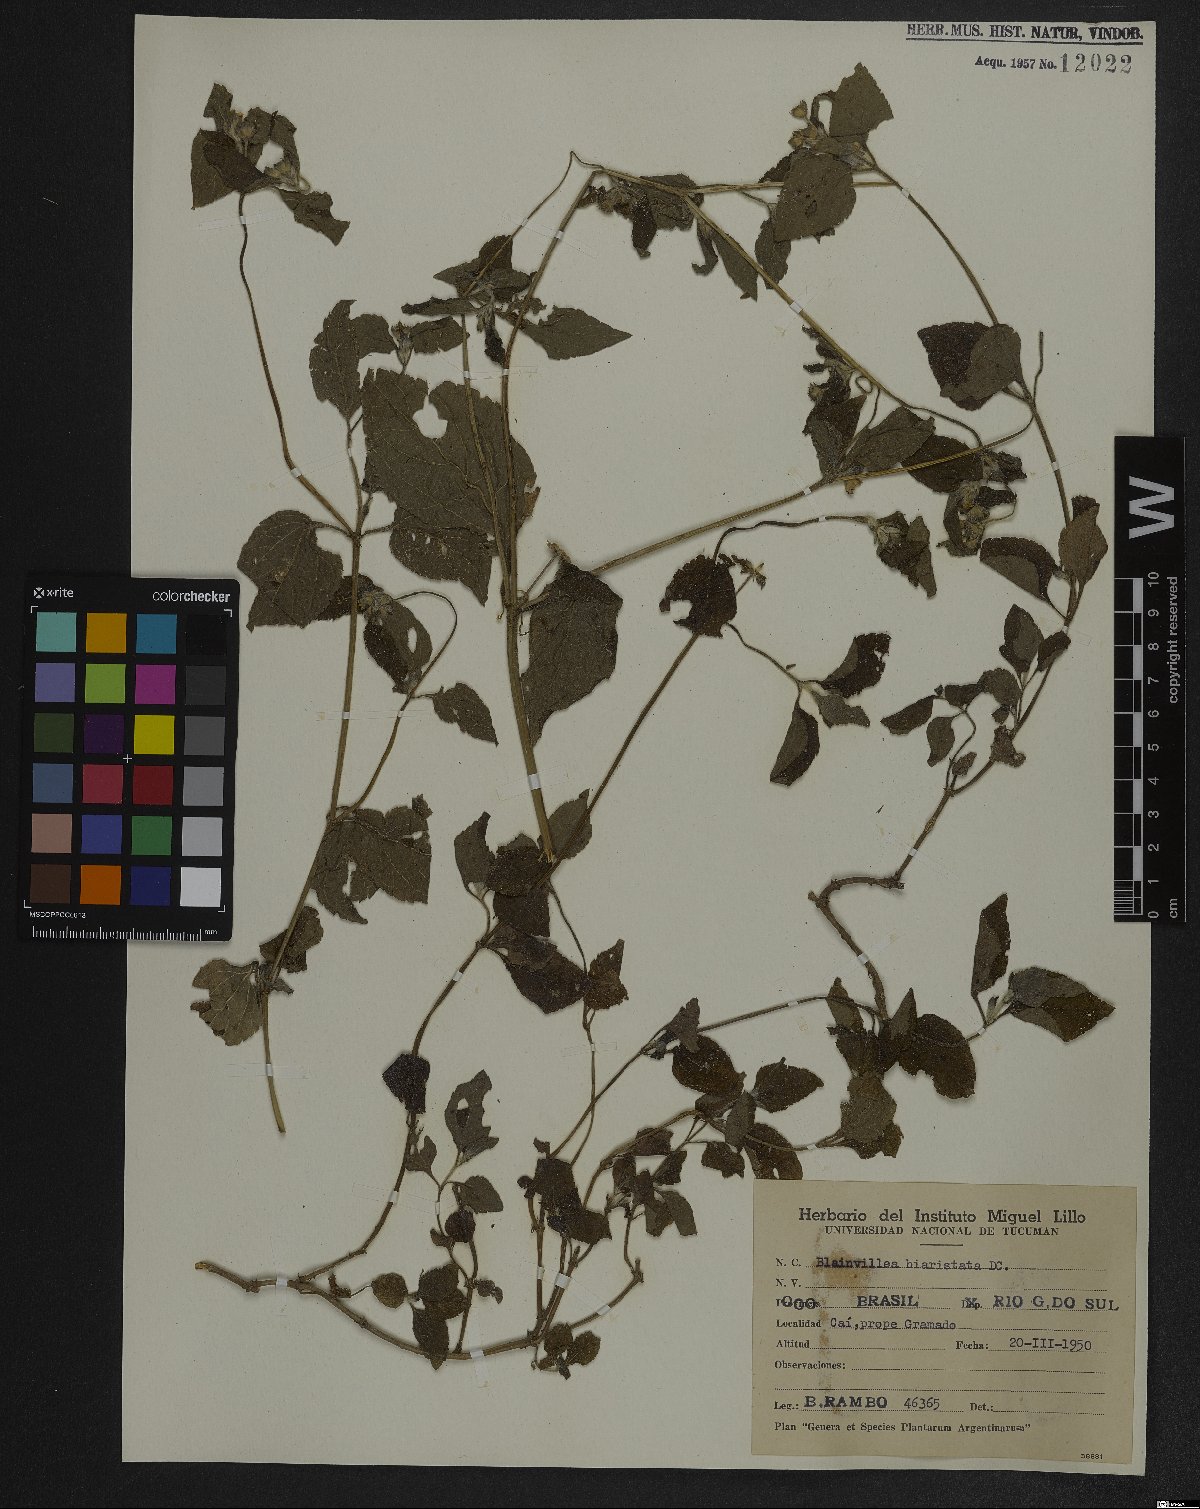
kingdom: Plantae
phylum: Tracheophyta
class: Magnoliopsida
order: Asterales
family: Asteraceae
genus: Calyptocarpus
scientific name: Calyptocarpus brasiliensis
